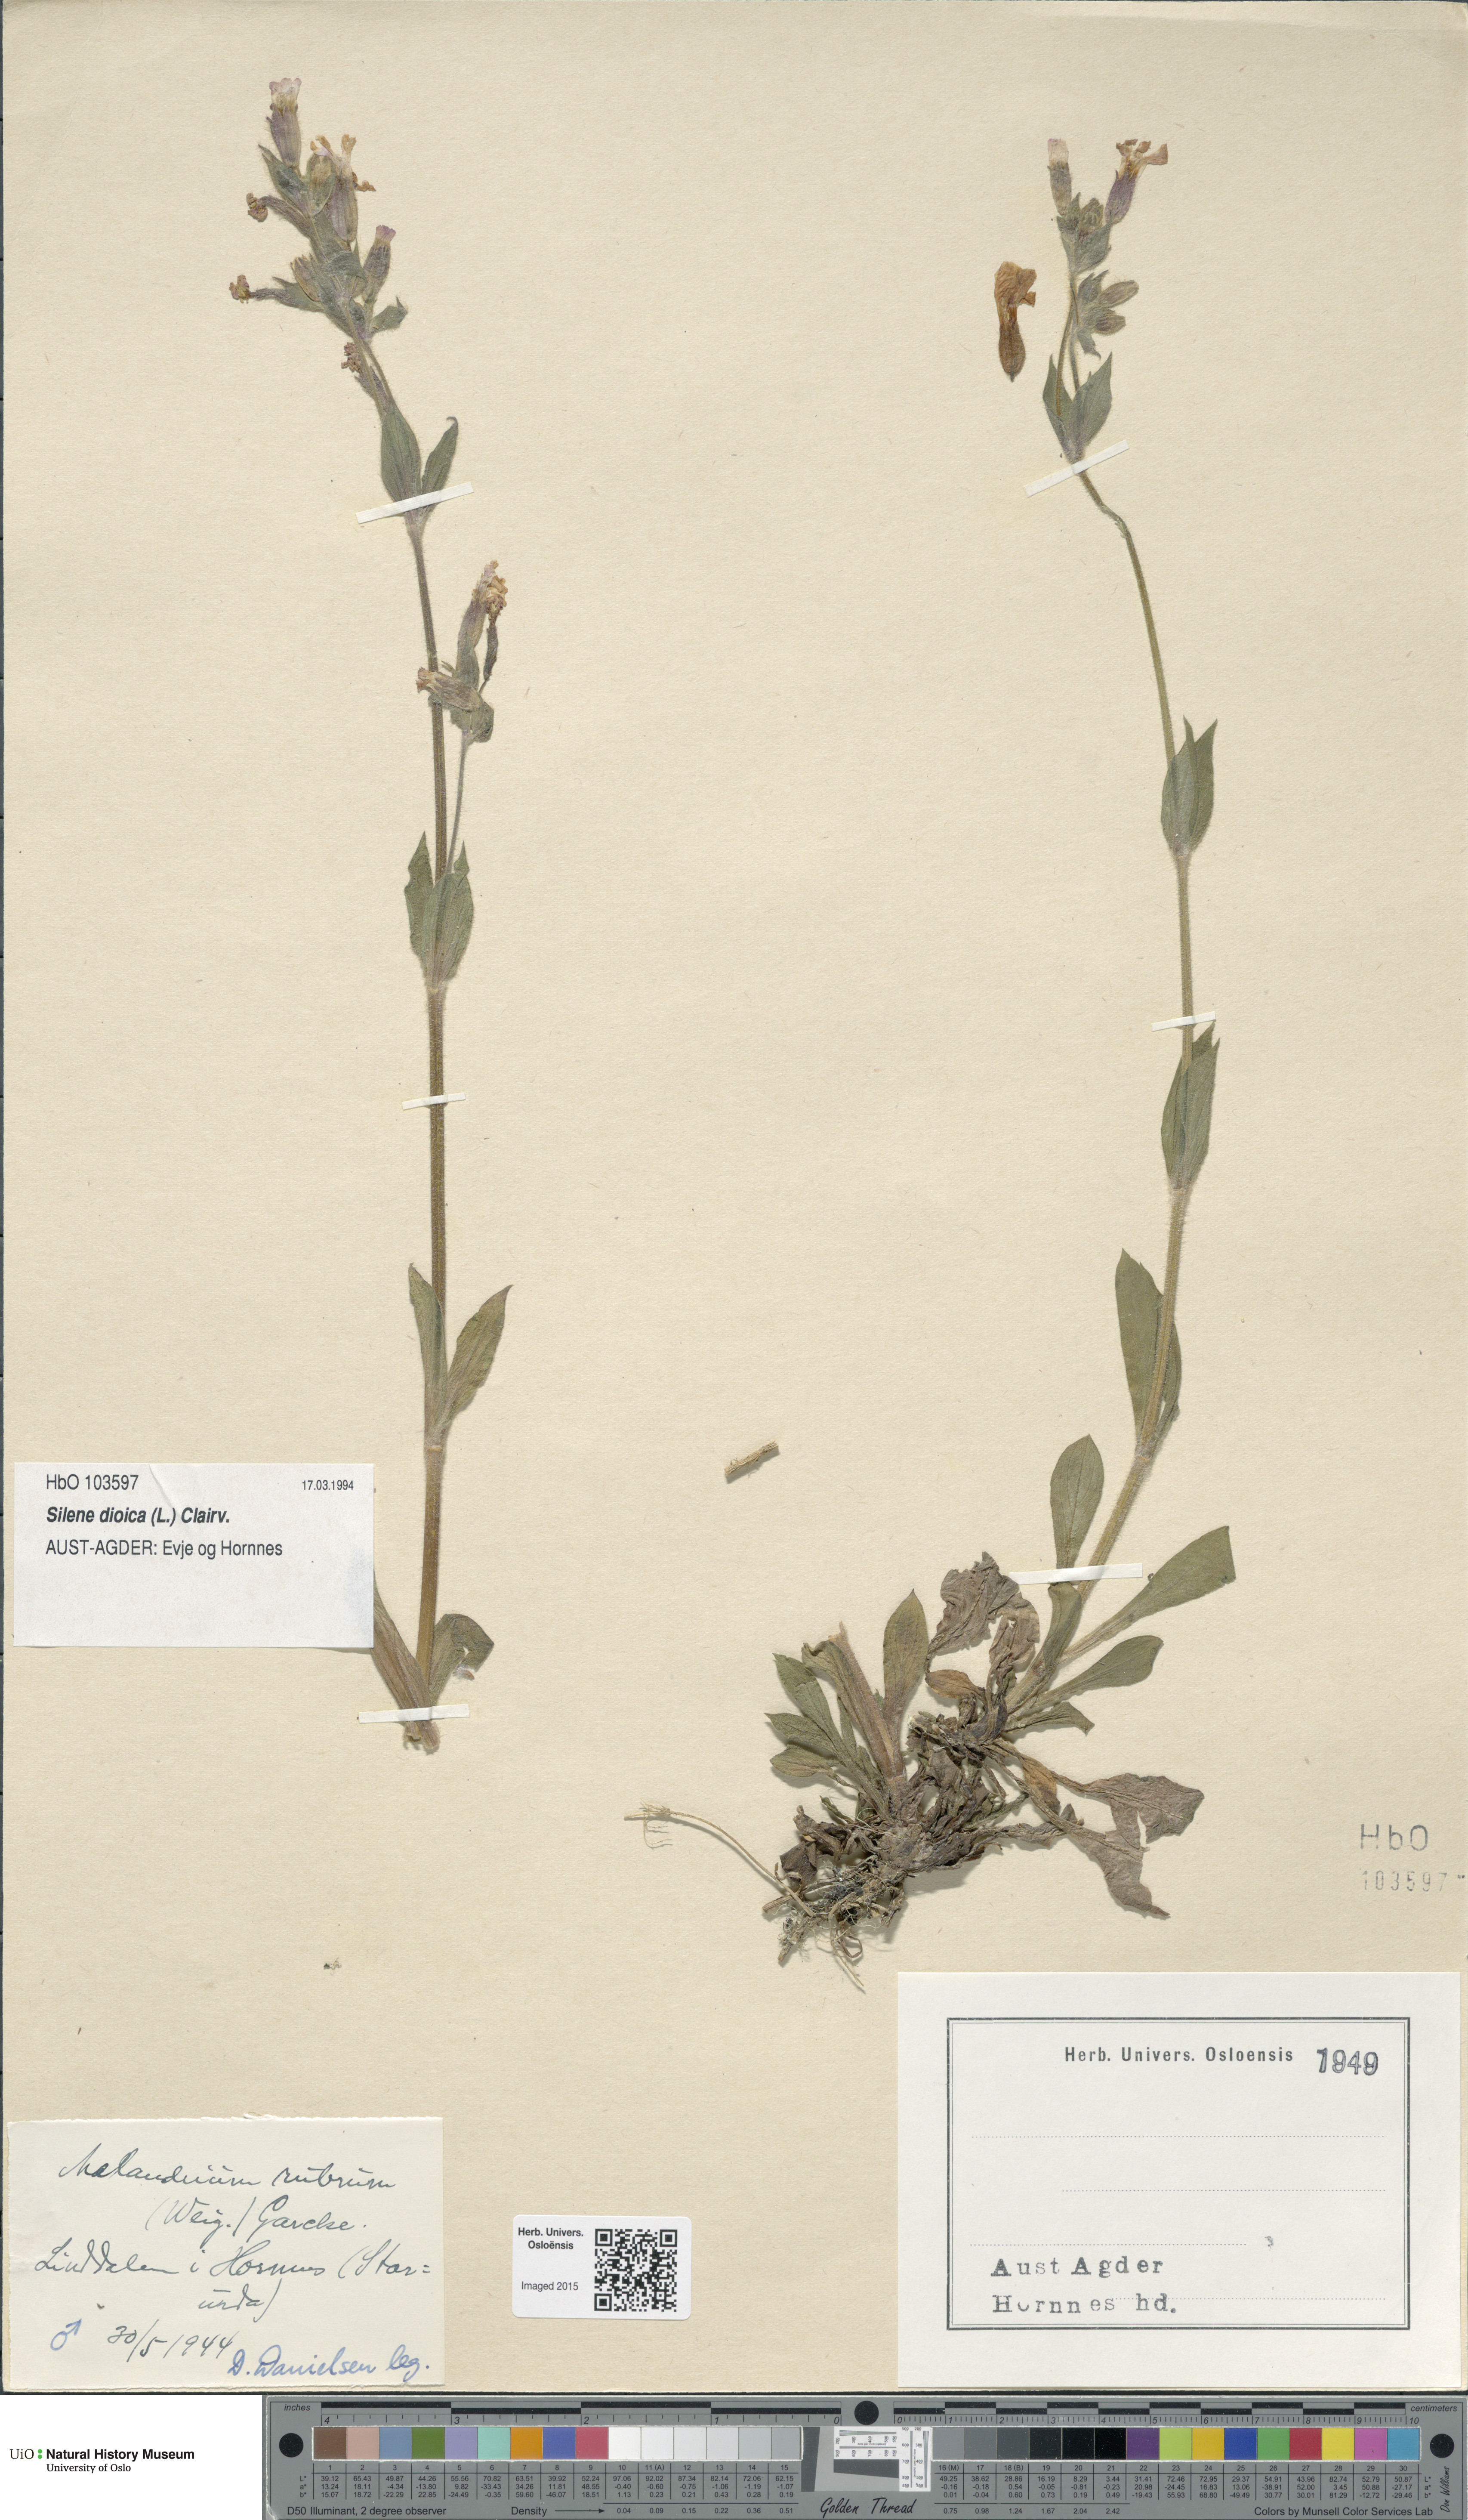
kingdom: Plantae
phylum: Tracheophyta
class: Magnoliopsida
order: Caryophyllales
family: Caryophyllaceae
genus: Silene
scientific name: Silene dioica
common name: Red campion
